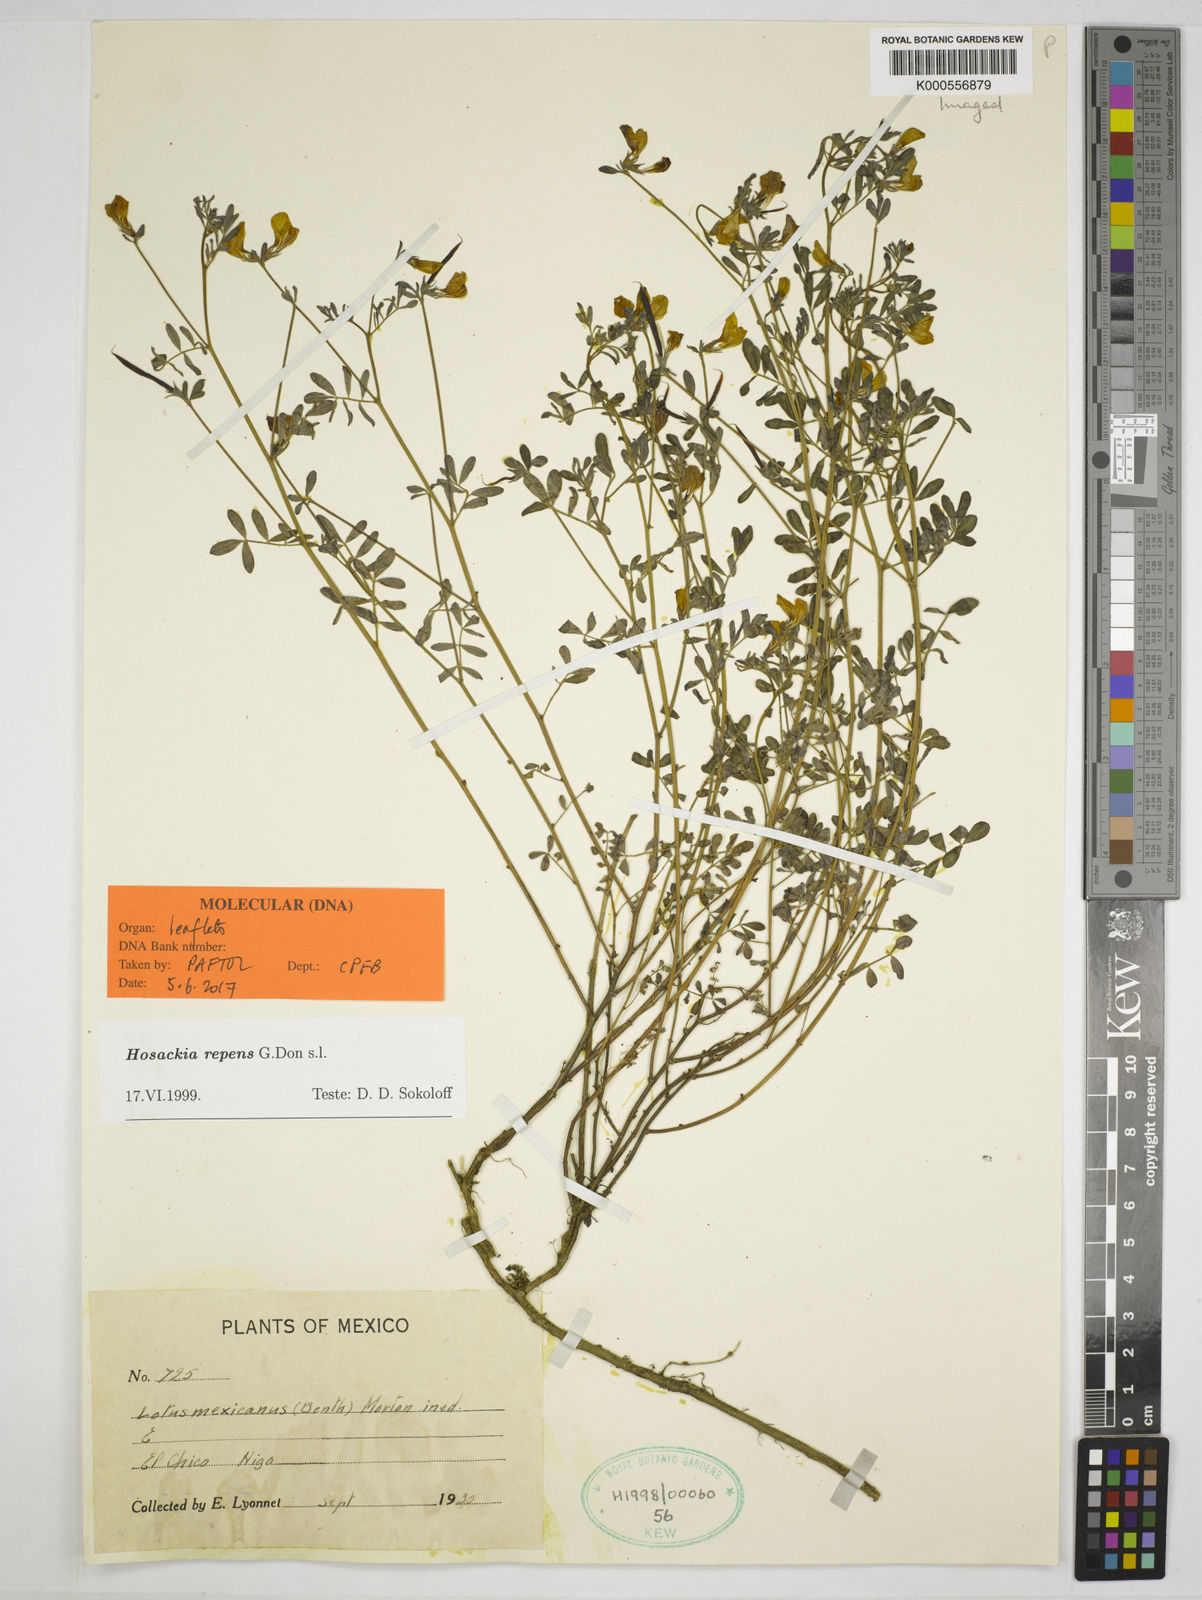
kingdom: Plantae
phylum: Tracheophyta
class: Magnoliopsida
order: Fabales
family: Fabaceae
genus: Hosackia
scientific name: Hosackia repens
